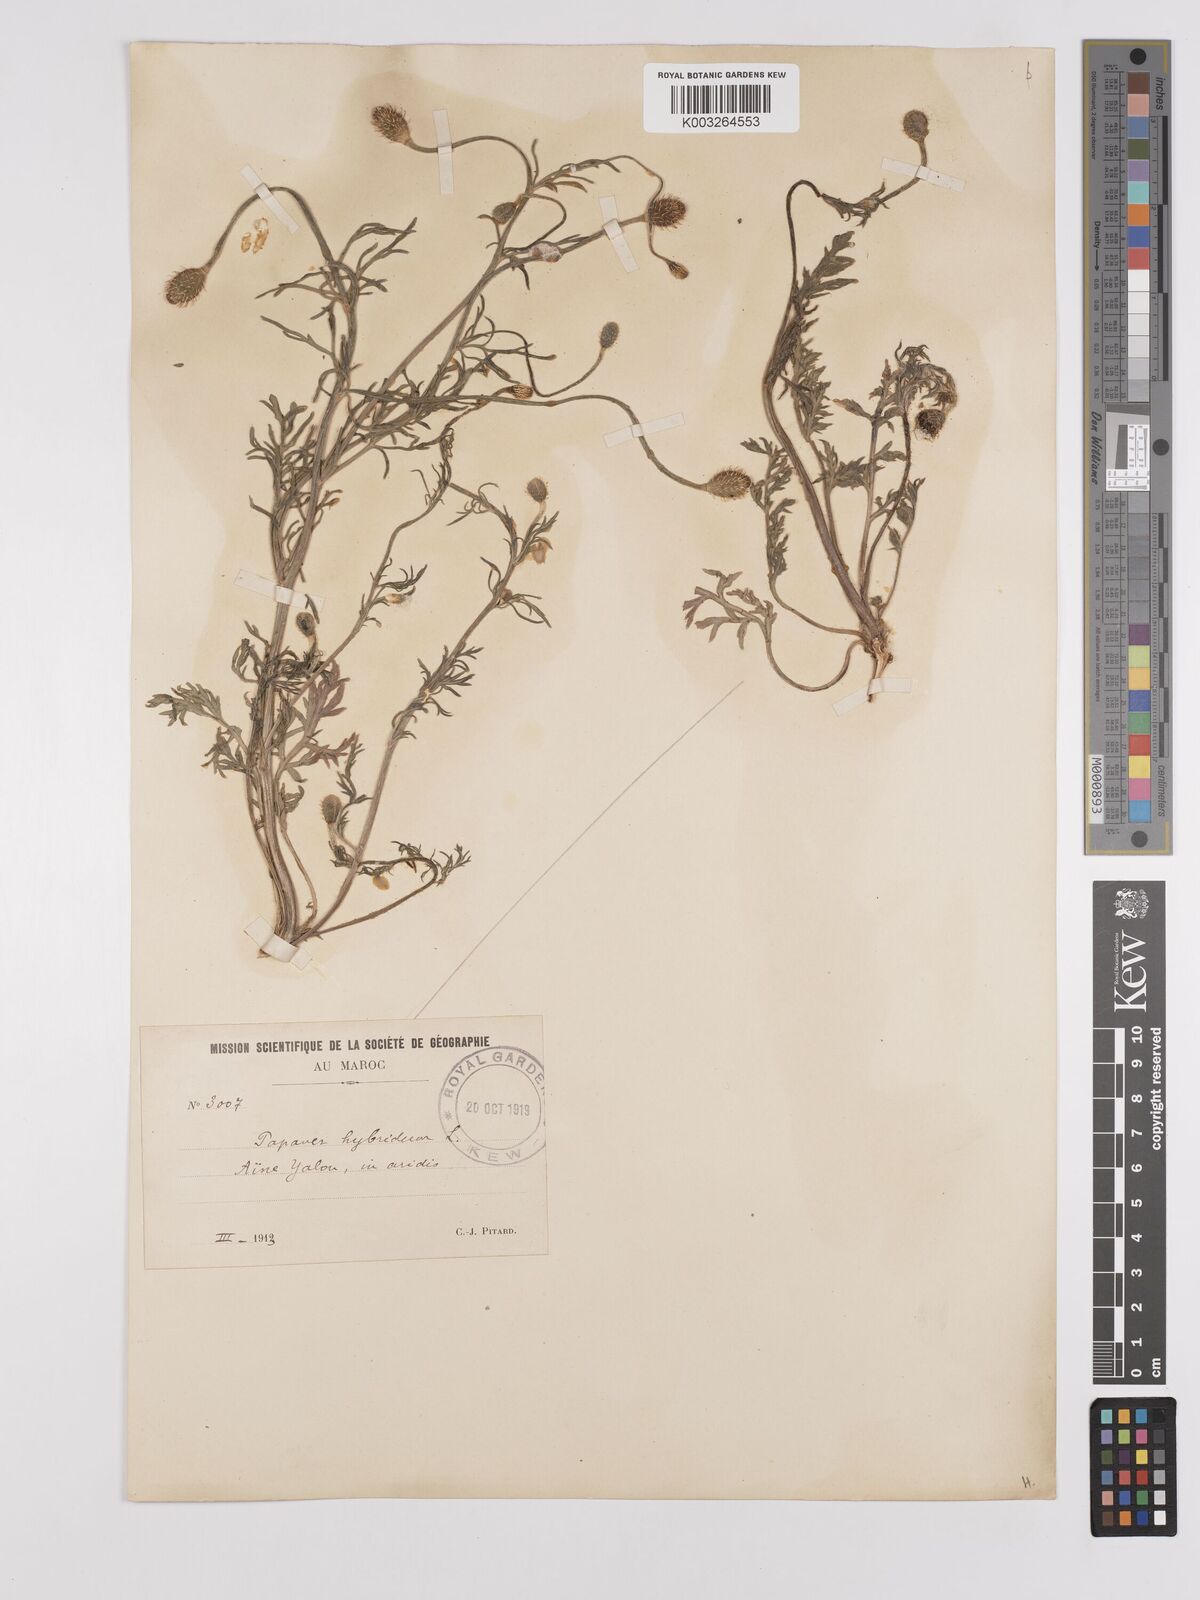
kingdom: Plantae
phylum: Tracheophyta
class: Magnoliopsida
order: Ranunculales
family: Papaveraceae
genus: Papaver
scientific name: Papaver
